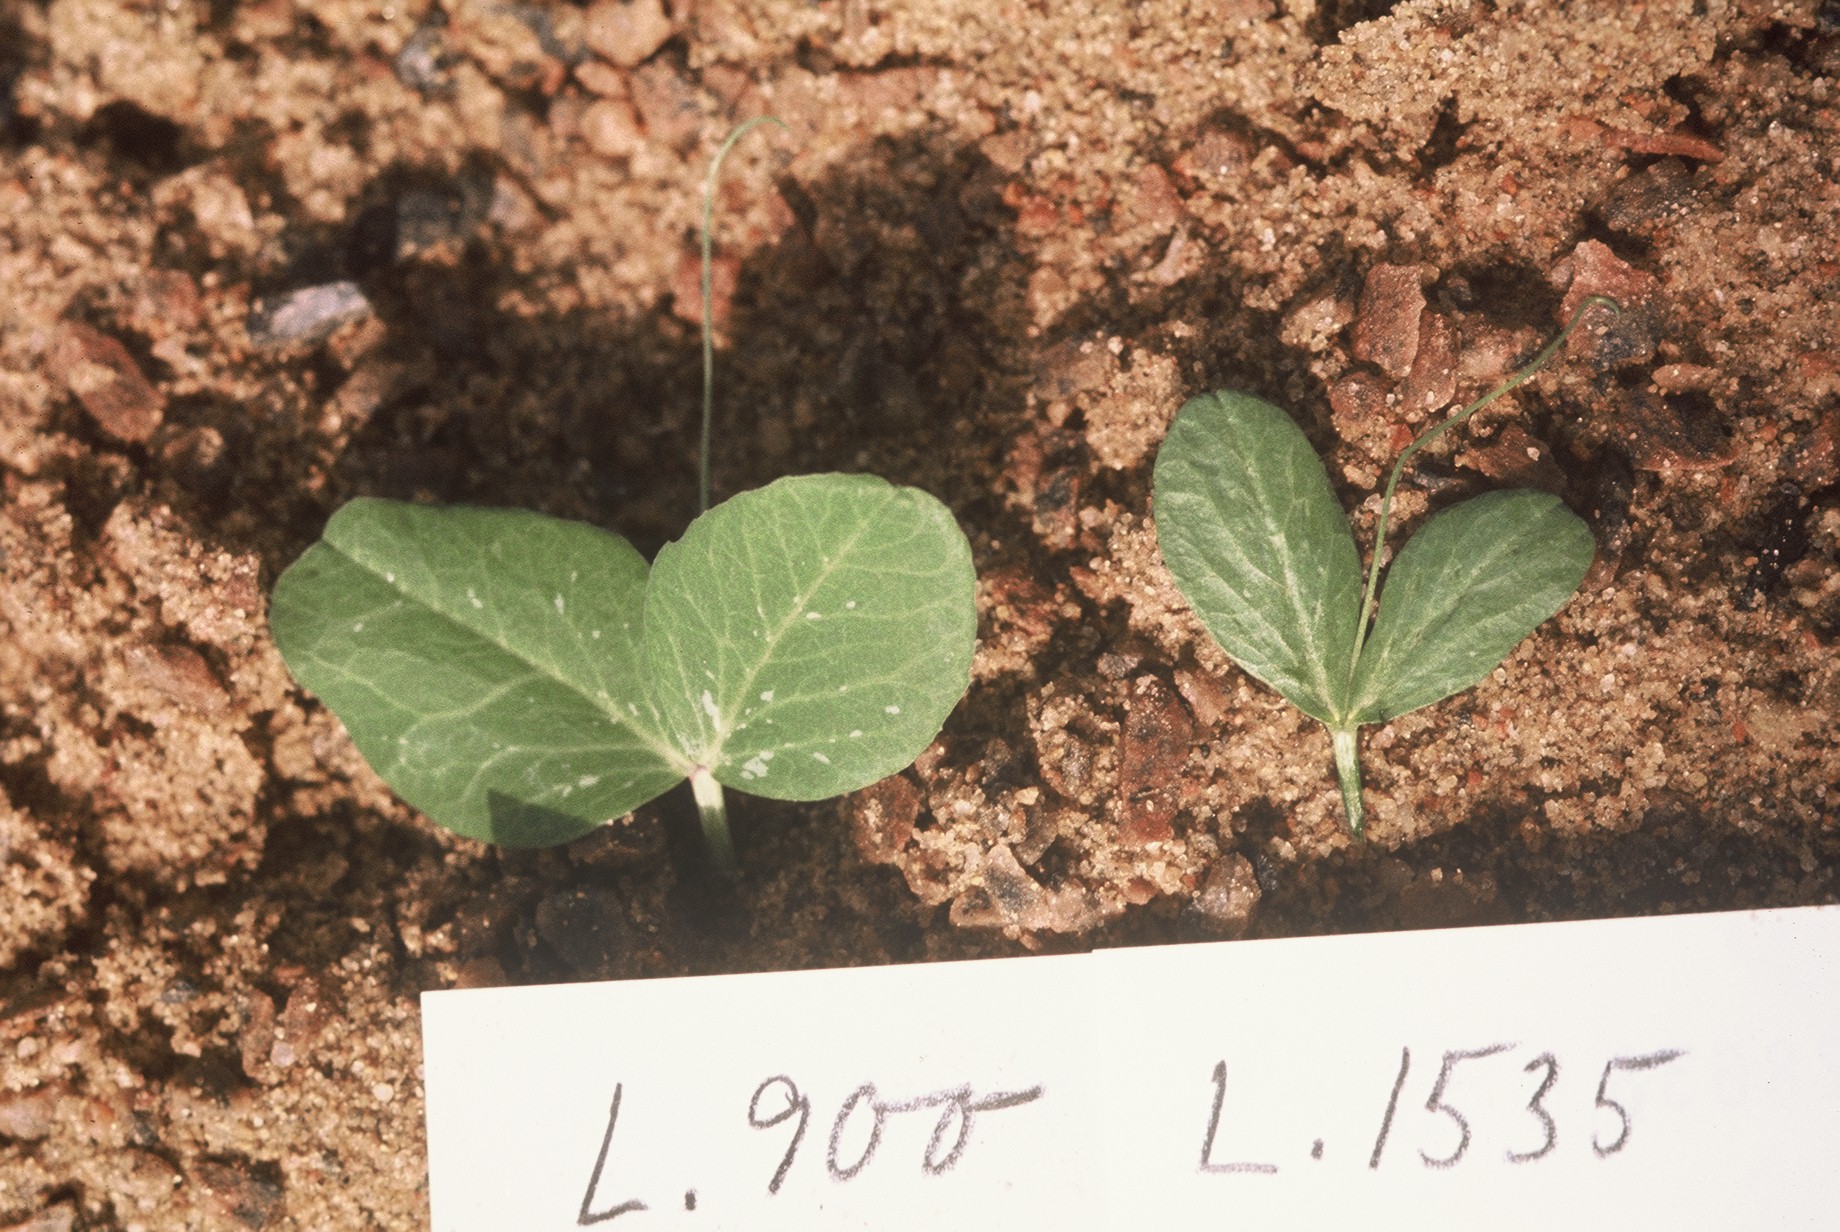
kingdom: Plantae
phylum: Tracheophyta
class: Magnoliopsida
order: Fabales
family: Fabaceae
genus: Lathyrus
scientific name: Lathyrus oleraceus
